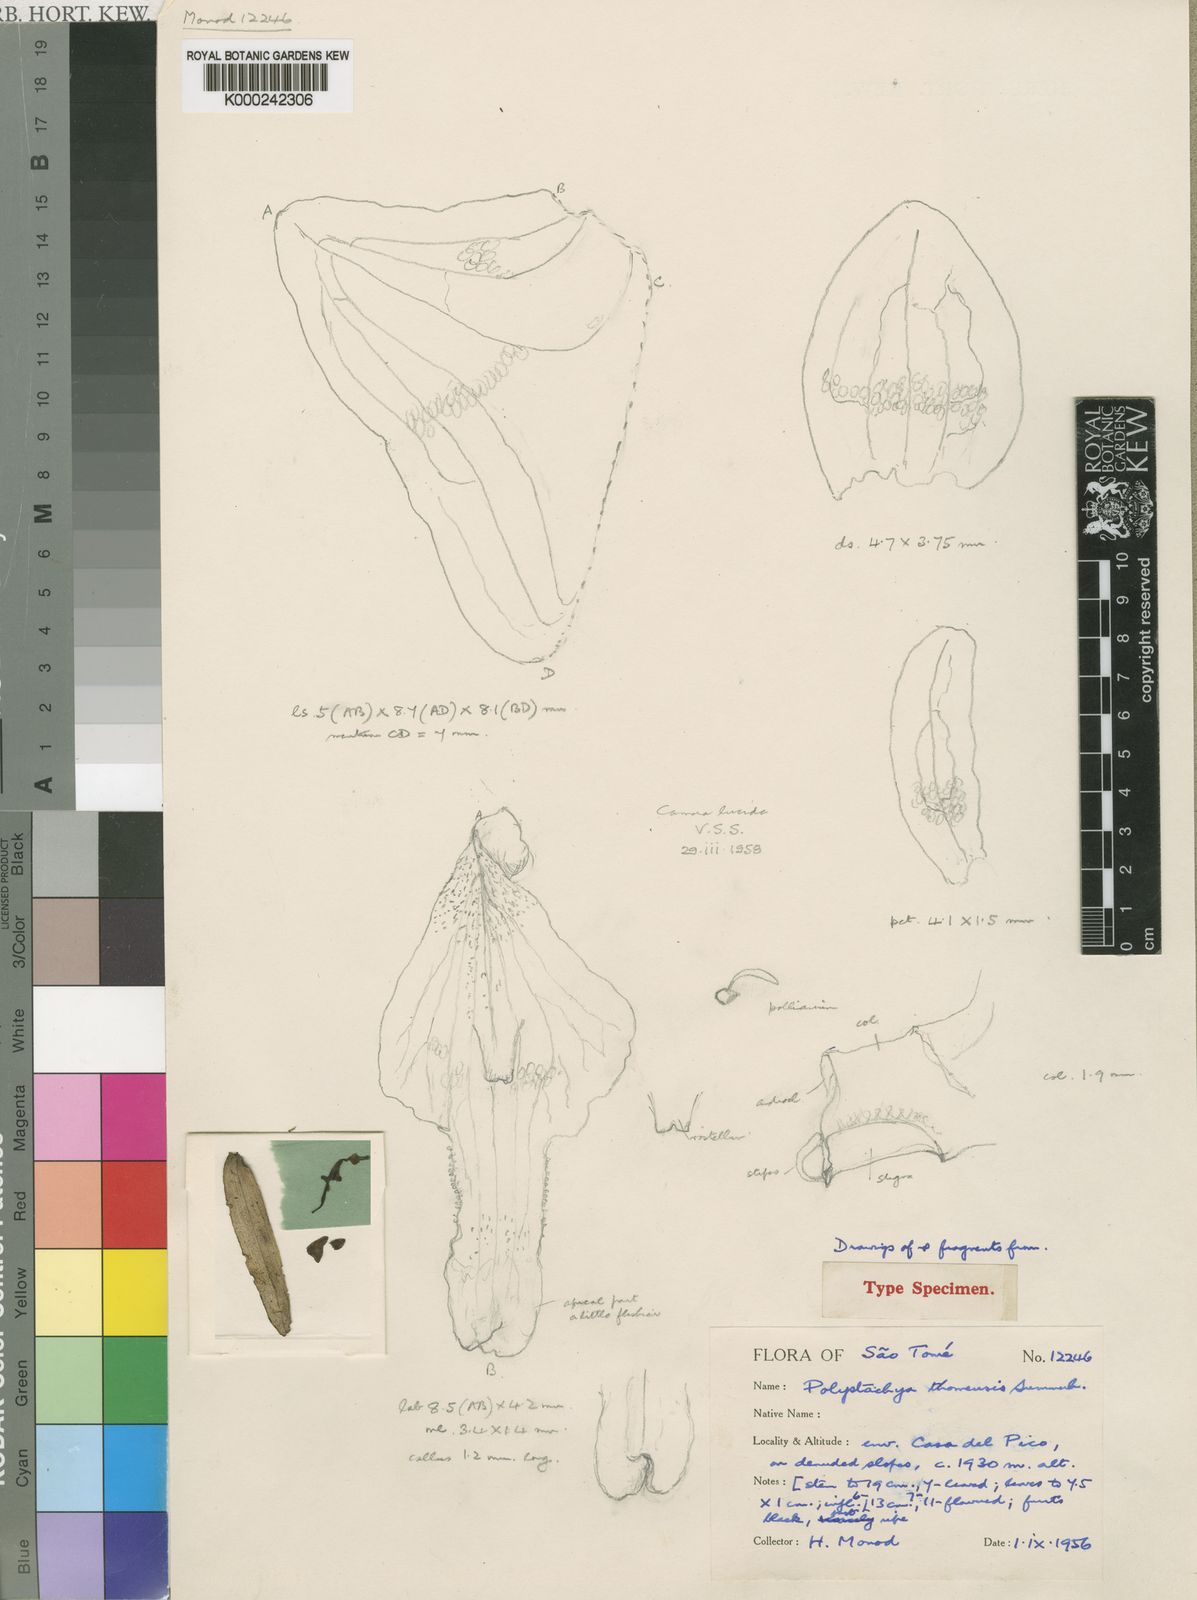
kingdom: Plantae
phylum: Tracheophyta
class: Liliopsida
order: Asparagales
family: Orchidaceae
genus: Polystachya
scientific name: Polystachya thomensis
